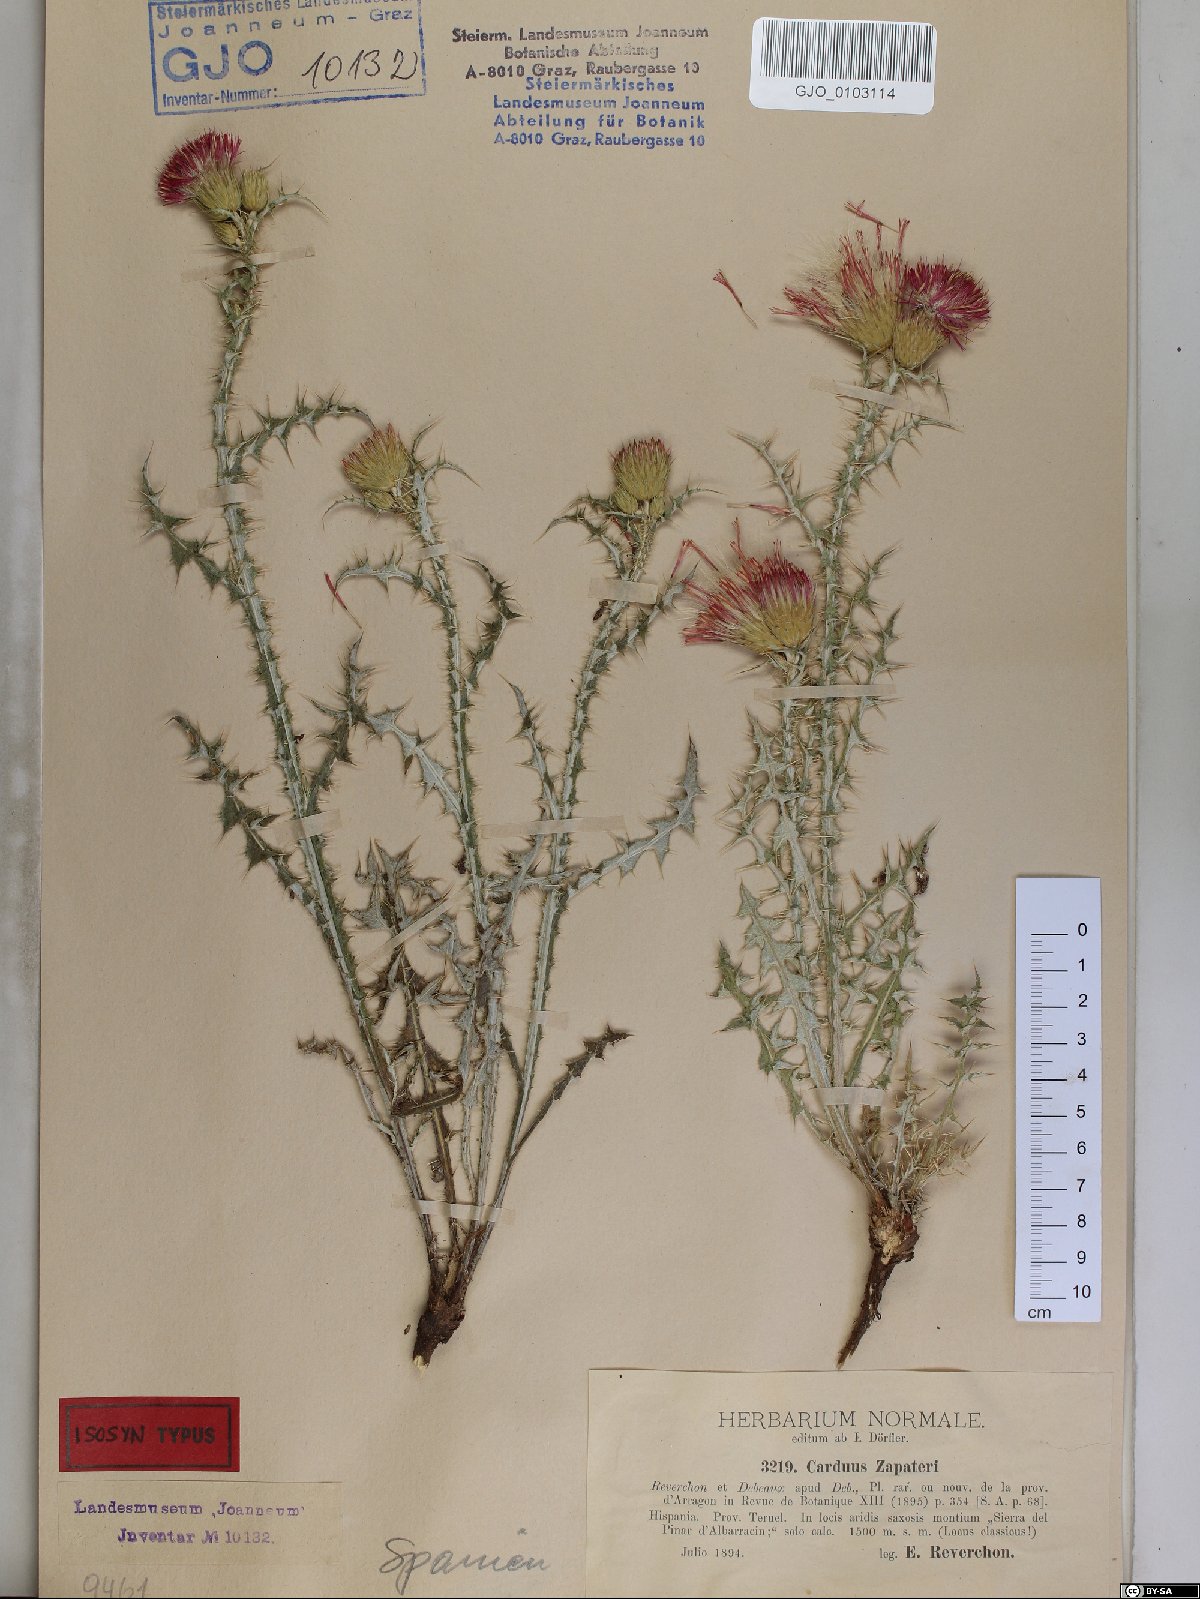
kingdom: Plantae
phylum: Tracheophyta
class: Magnoliopsida
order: Asterales
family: Asteraceae
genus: Carduus
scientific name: Carduus pycnocephalus
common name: Plymouth thistle
